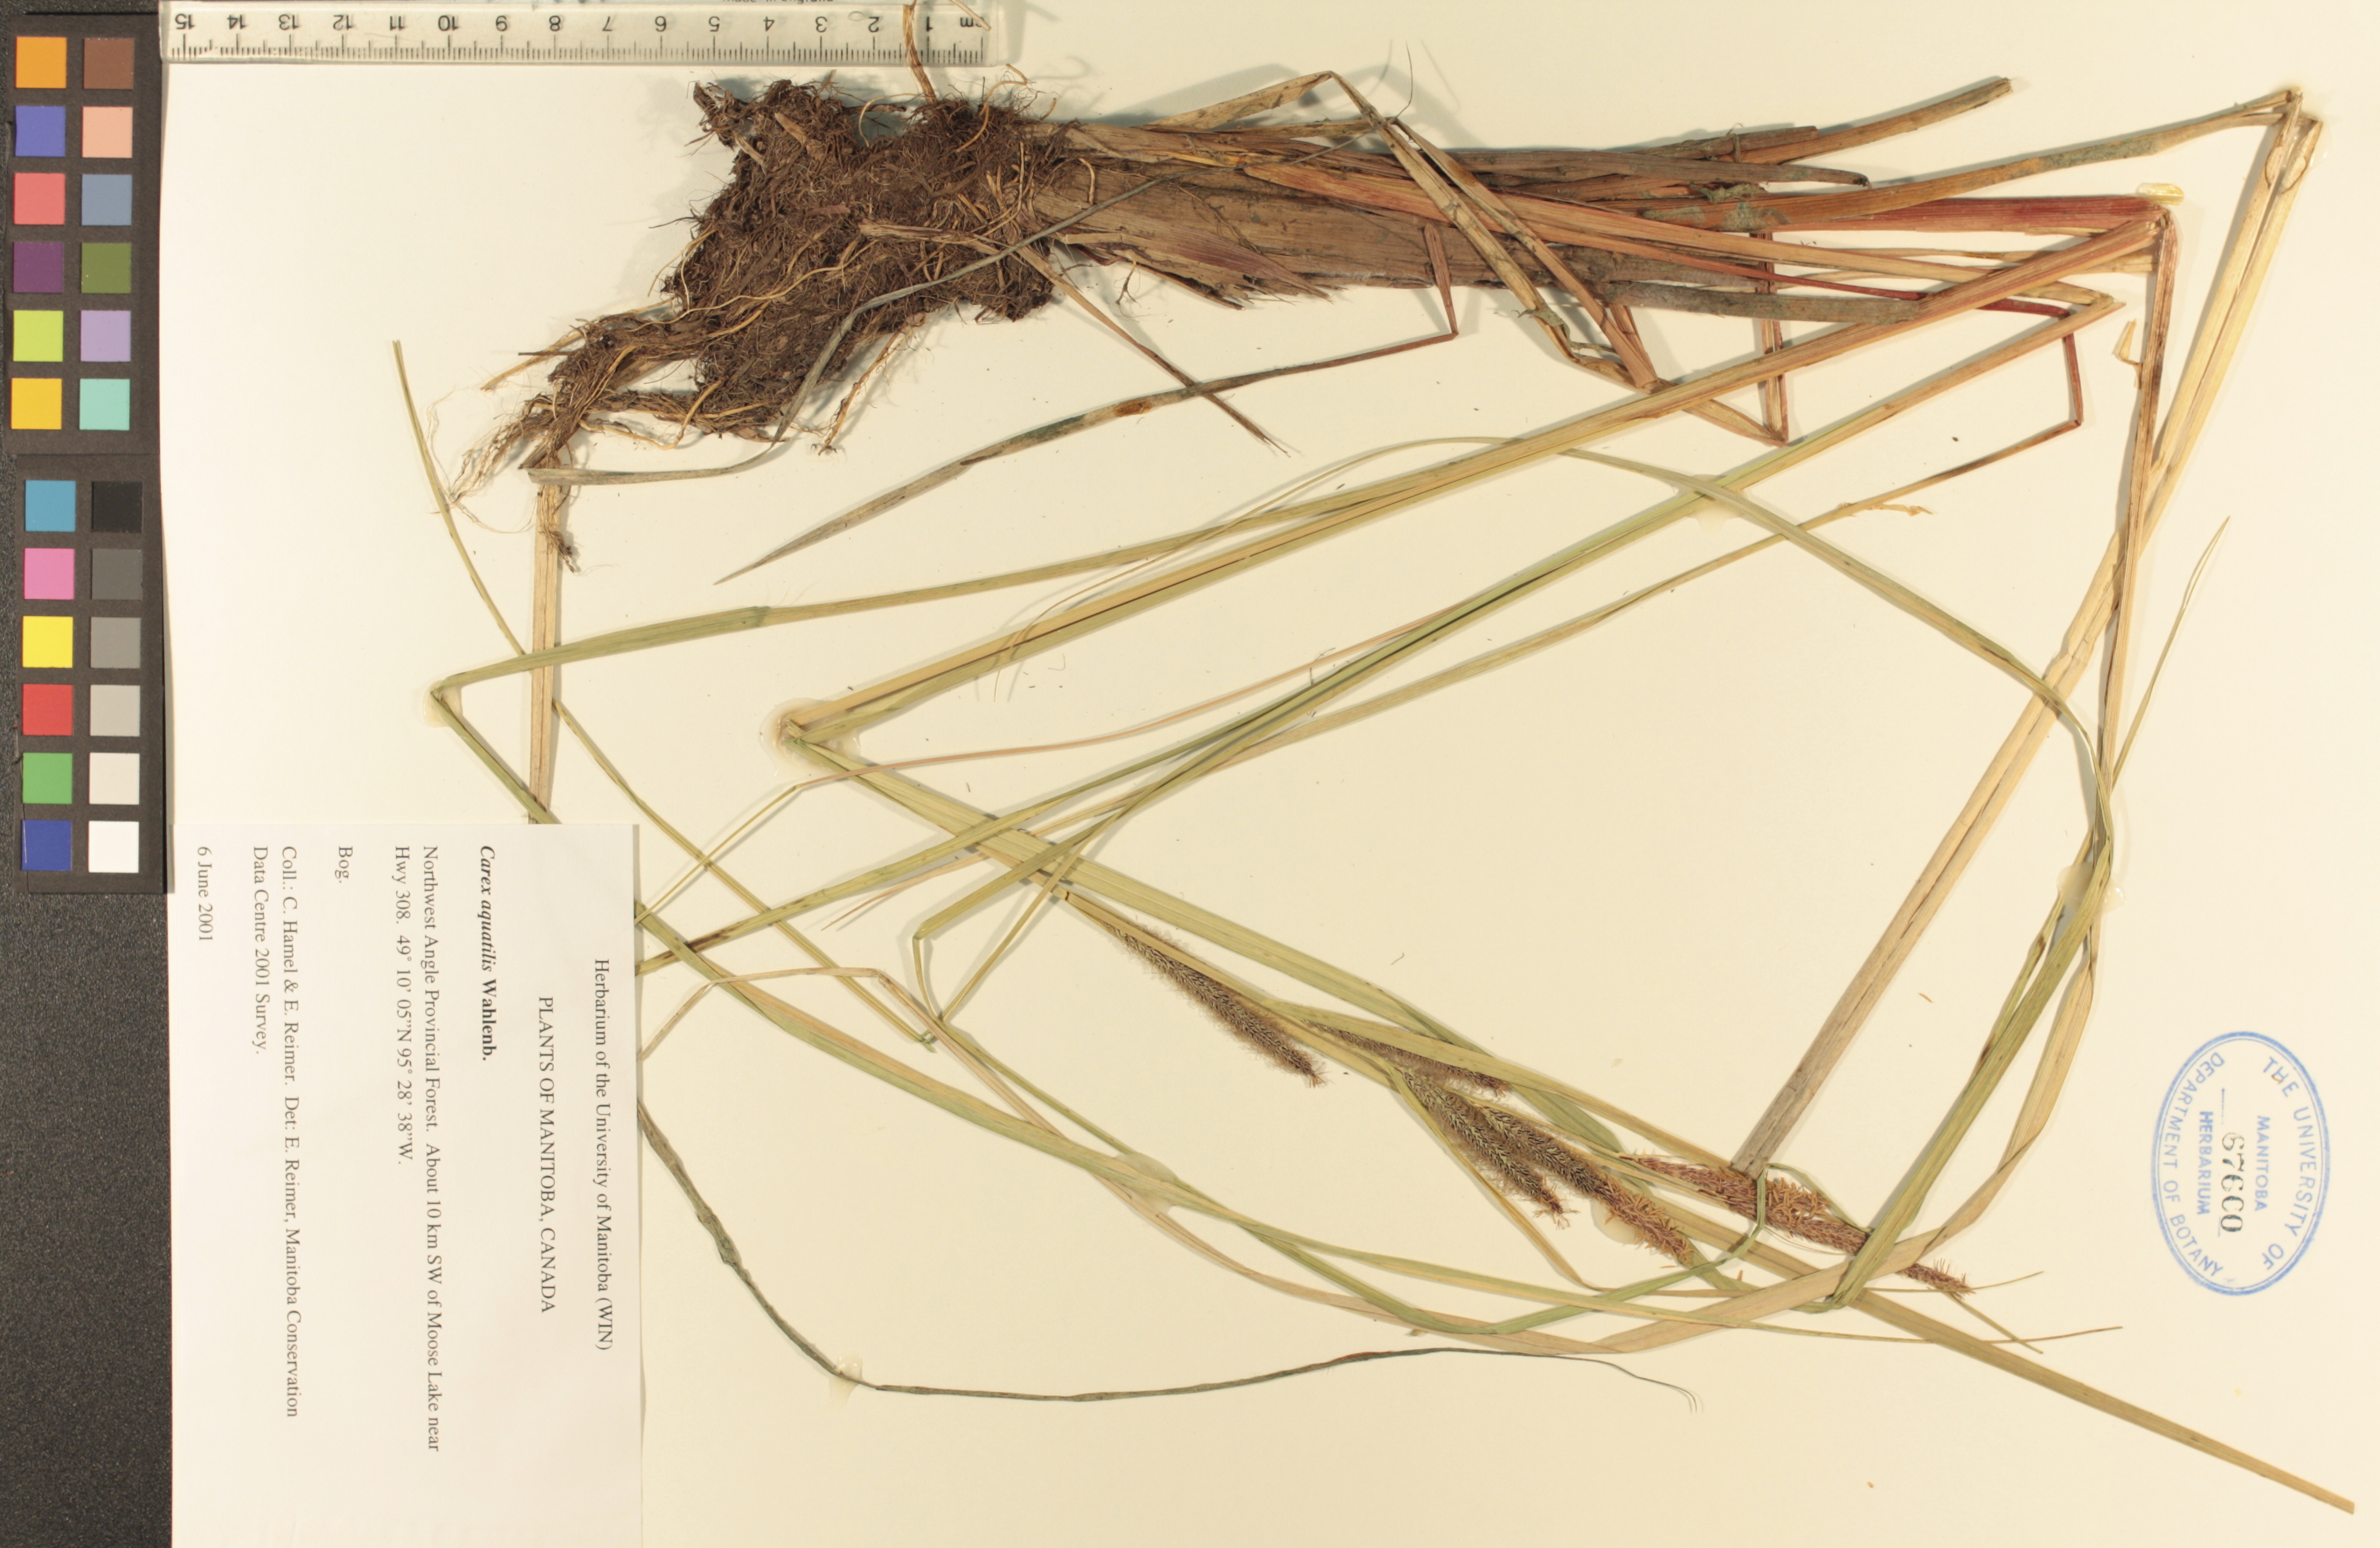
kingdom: Plantae
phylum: Tracheophyta
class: Liliopsida
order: Poales
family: Cyperaceae
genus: Carex
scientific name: Carex aquatilis
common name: Water sedge
